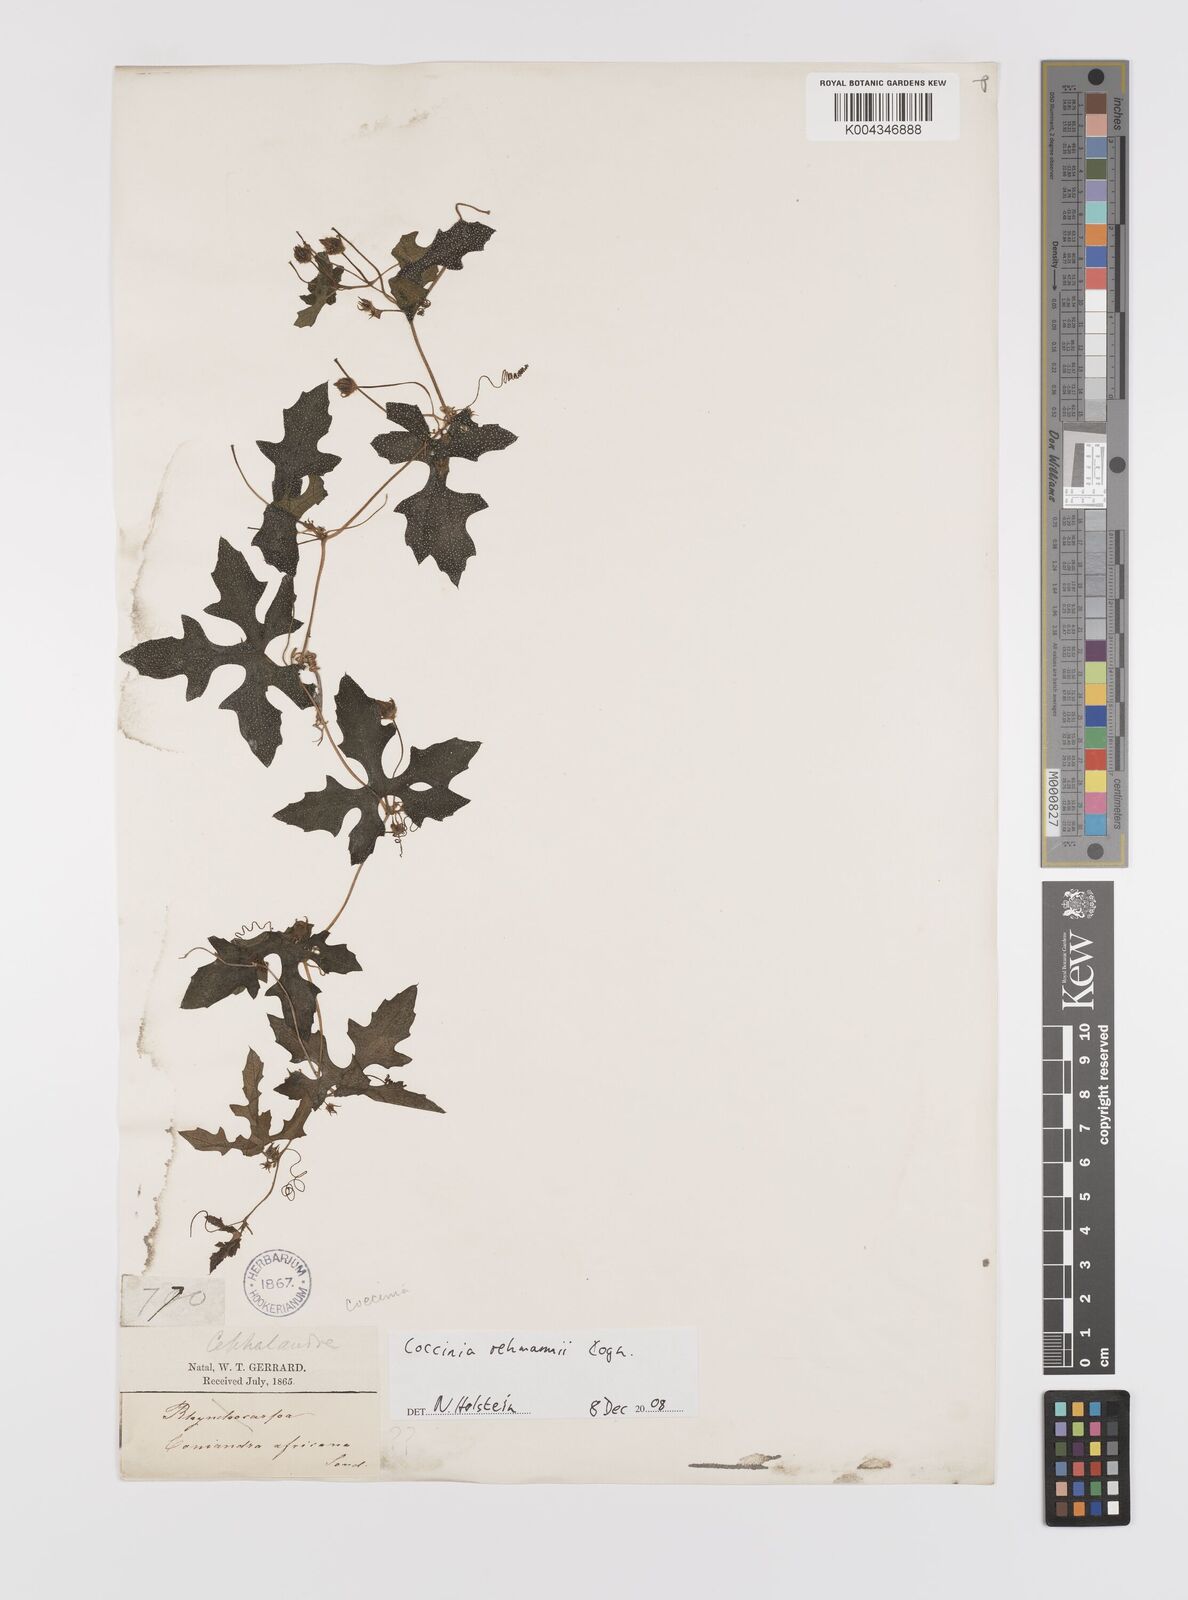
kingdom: Plantae
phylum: Tracheophyta
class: Magnoliopsida
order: Cucurbitales
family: Cucurbitaceae
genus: Coccinia
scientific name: Coccinia rehmannii
